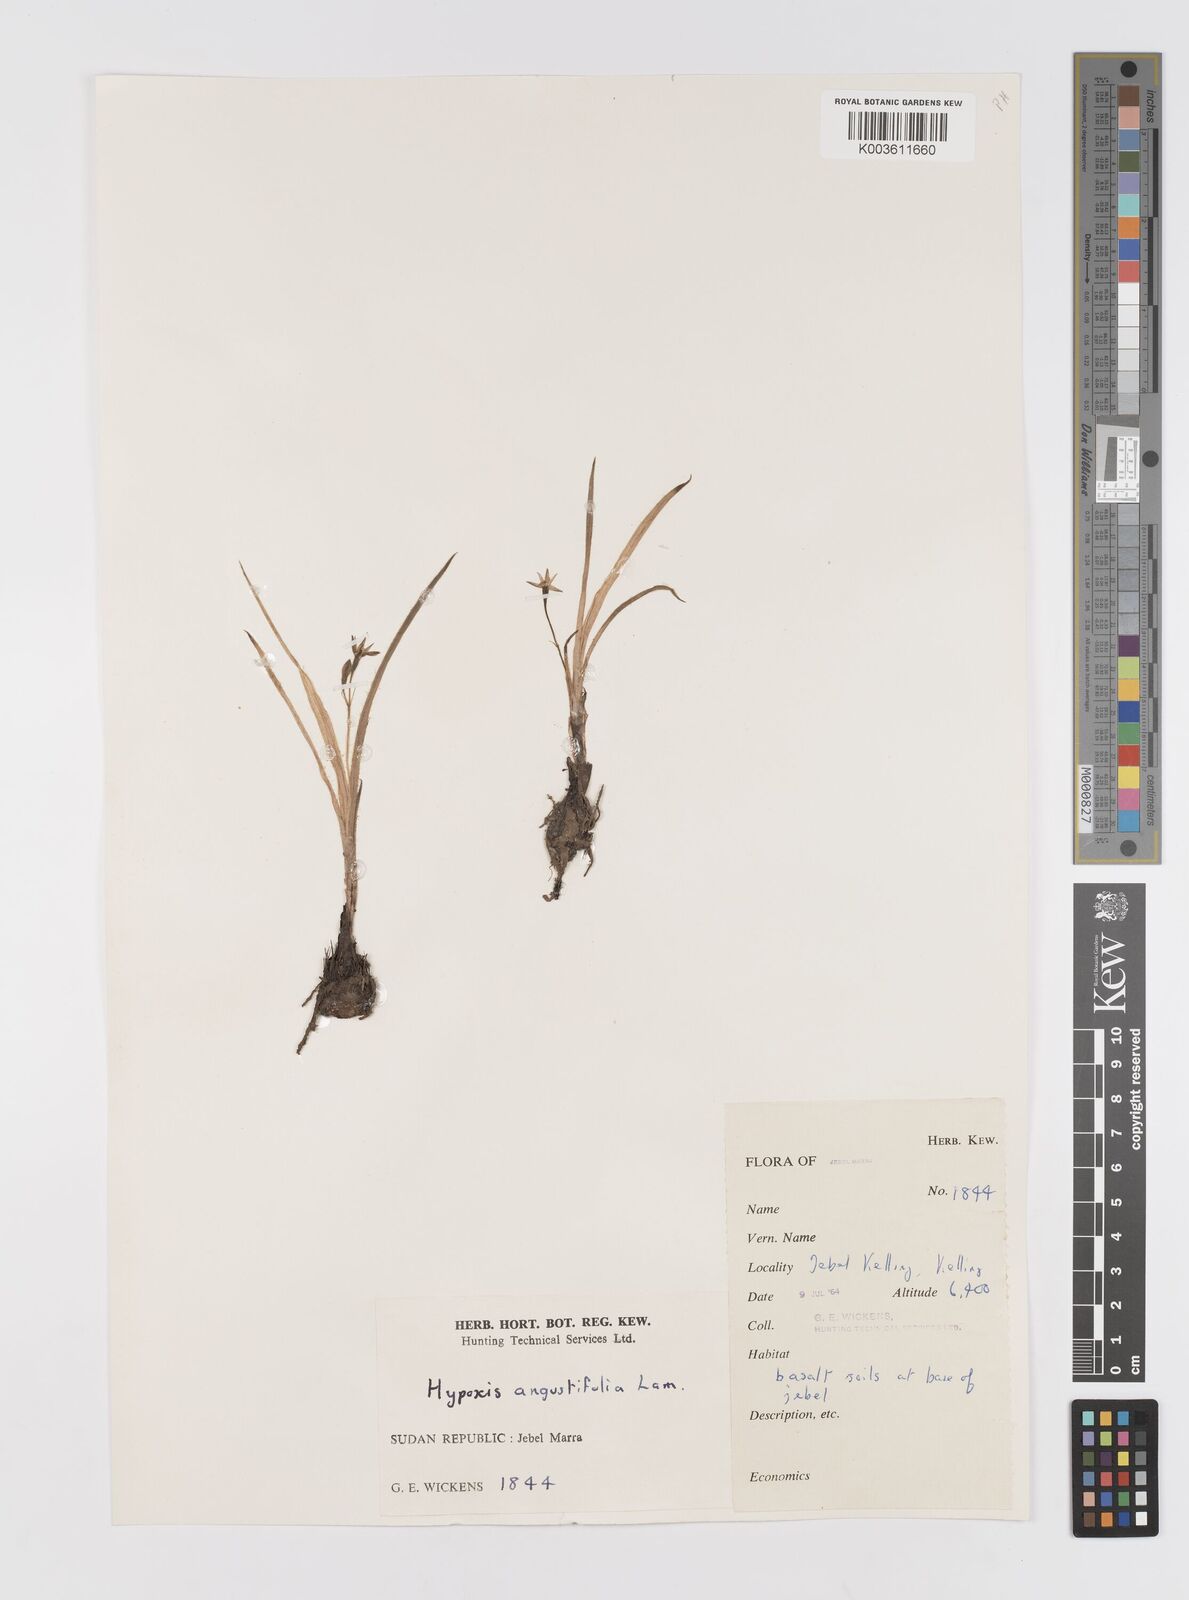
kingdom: Plantae
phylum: Tracheophyta
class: Liliopsida
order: Asparagales
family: Hypoxidaceae
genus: Hypoxis
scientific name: Hypoxis angustifolia
